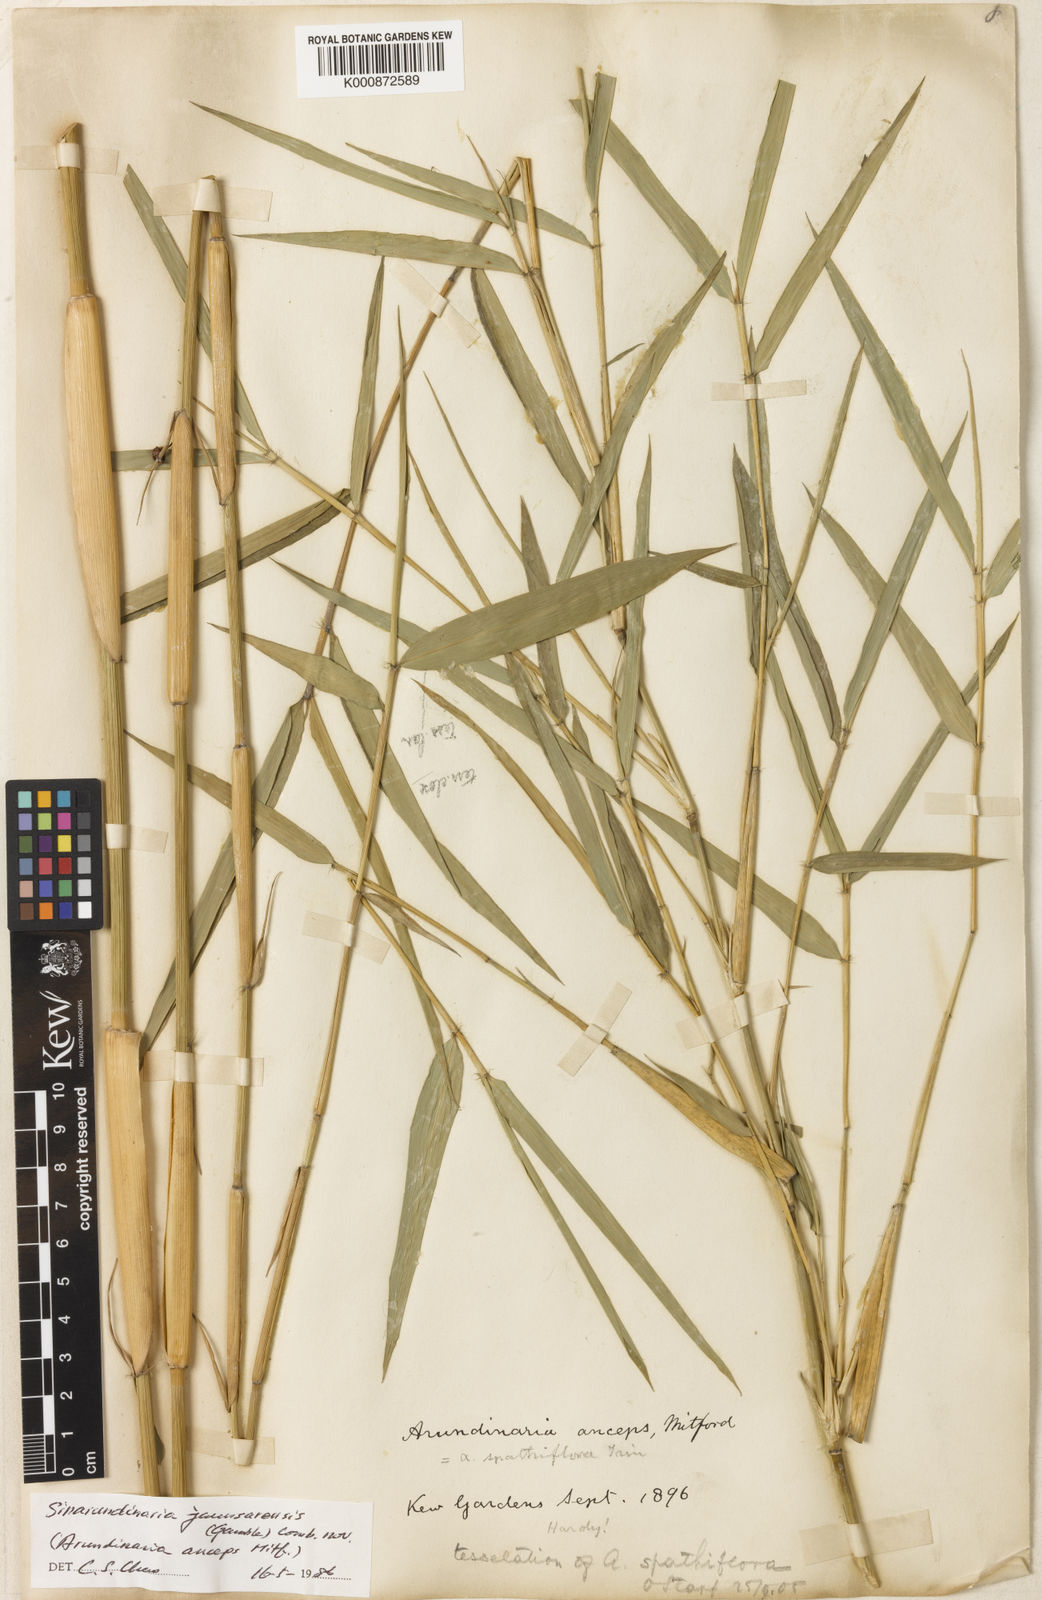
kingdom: Plantae
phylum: Tracheophyta
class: Liliopsida
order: Poales
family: Poaceae
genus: Yushania
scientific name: Yushania anceps
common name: Indian fountain-bamboo
